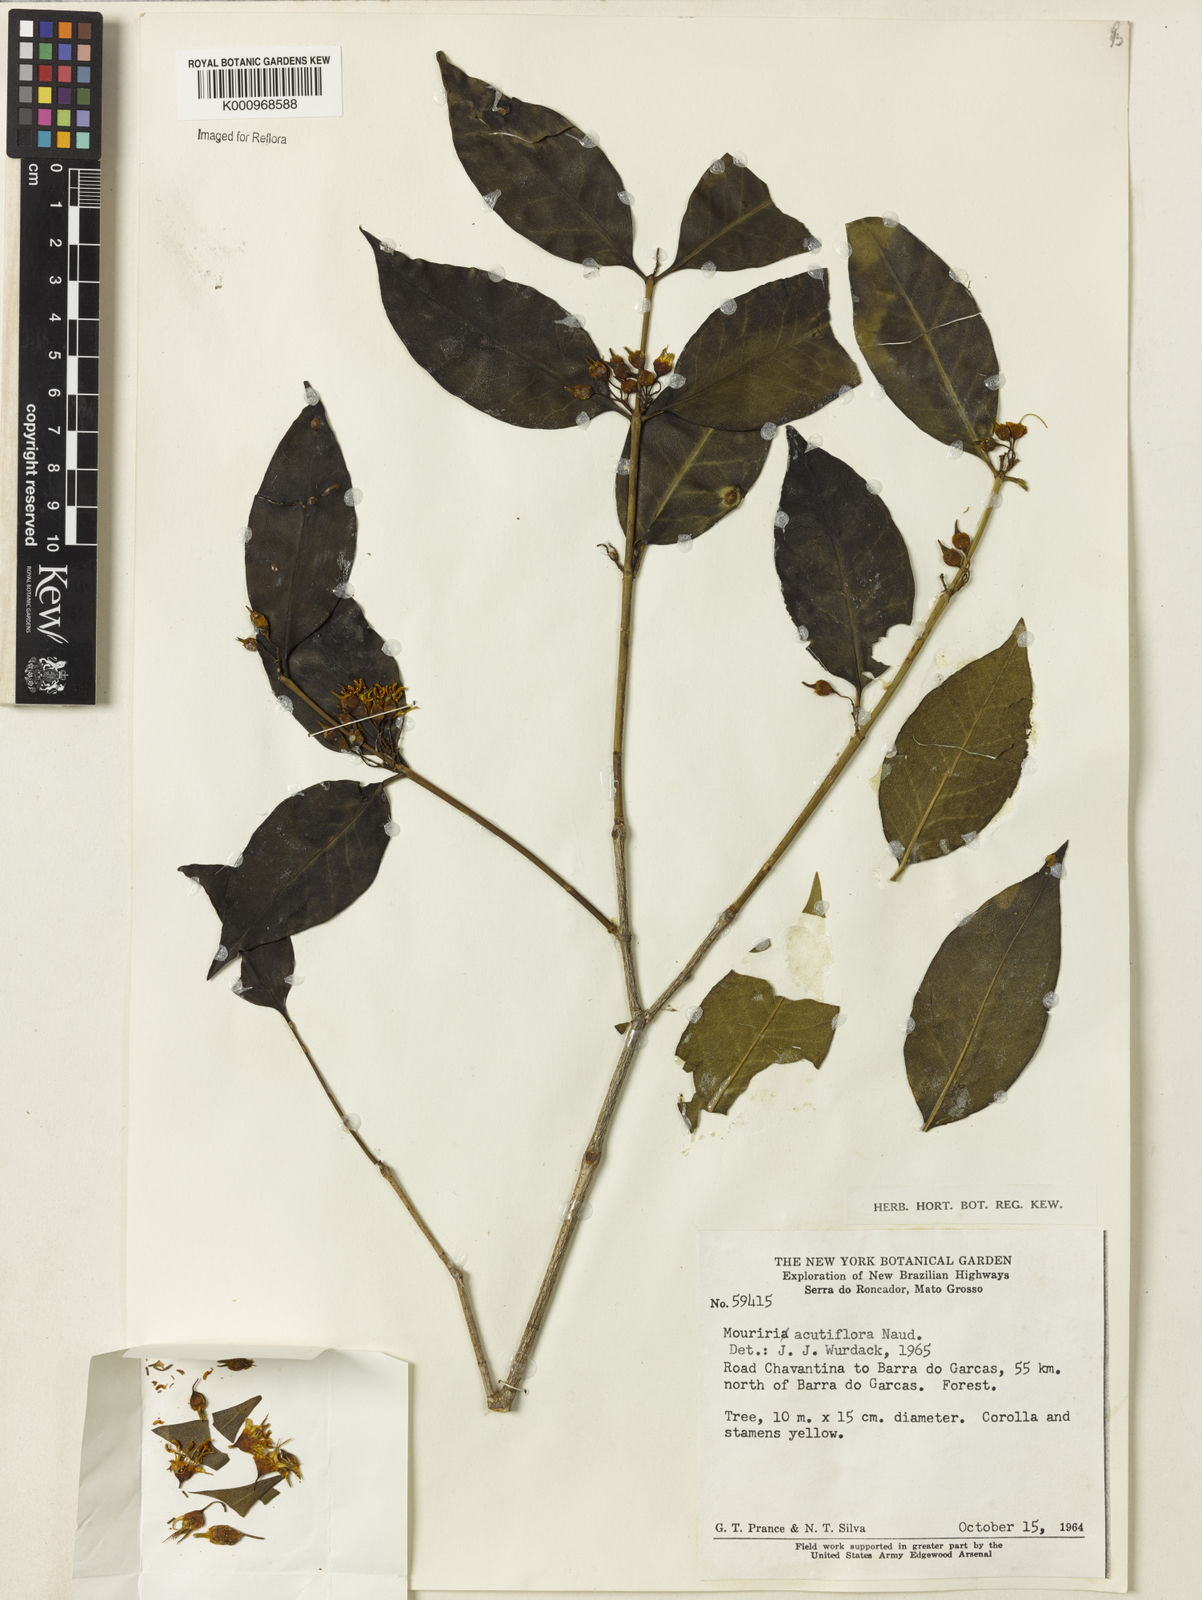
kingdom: Plantae
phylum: Tracheophyta
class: Magnoliopsida
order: Myrtales
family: Melastomataceae
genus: Mouriri
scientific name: Mouriri acutiflora
